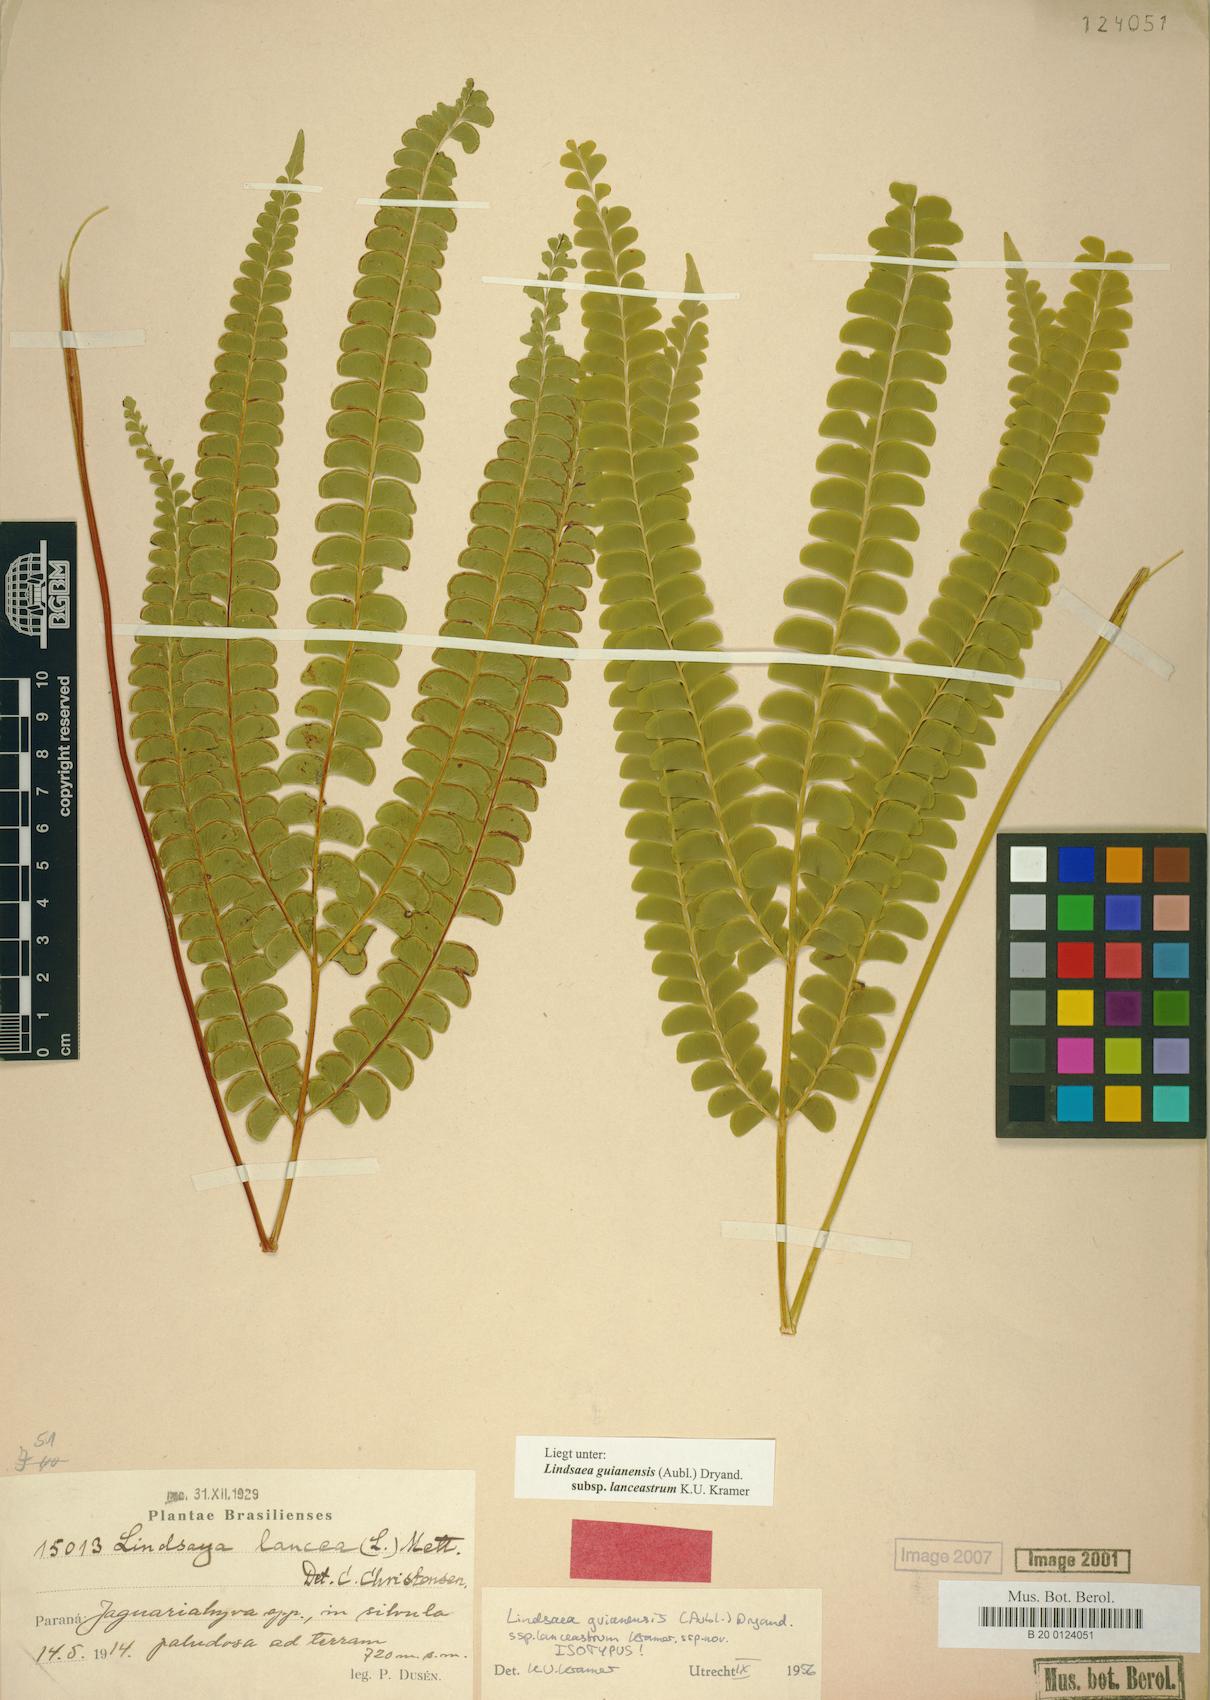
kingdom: Plantae
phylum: Tracheophyta
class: Polypodiopsida
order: Polypodiales
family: Lindsaeaceae
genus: Lindsaea
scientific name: Lindsaea guianensis
